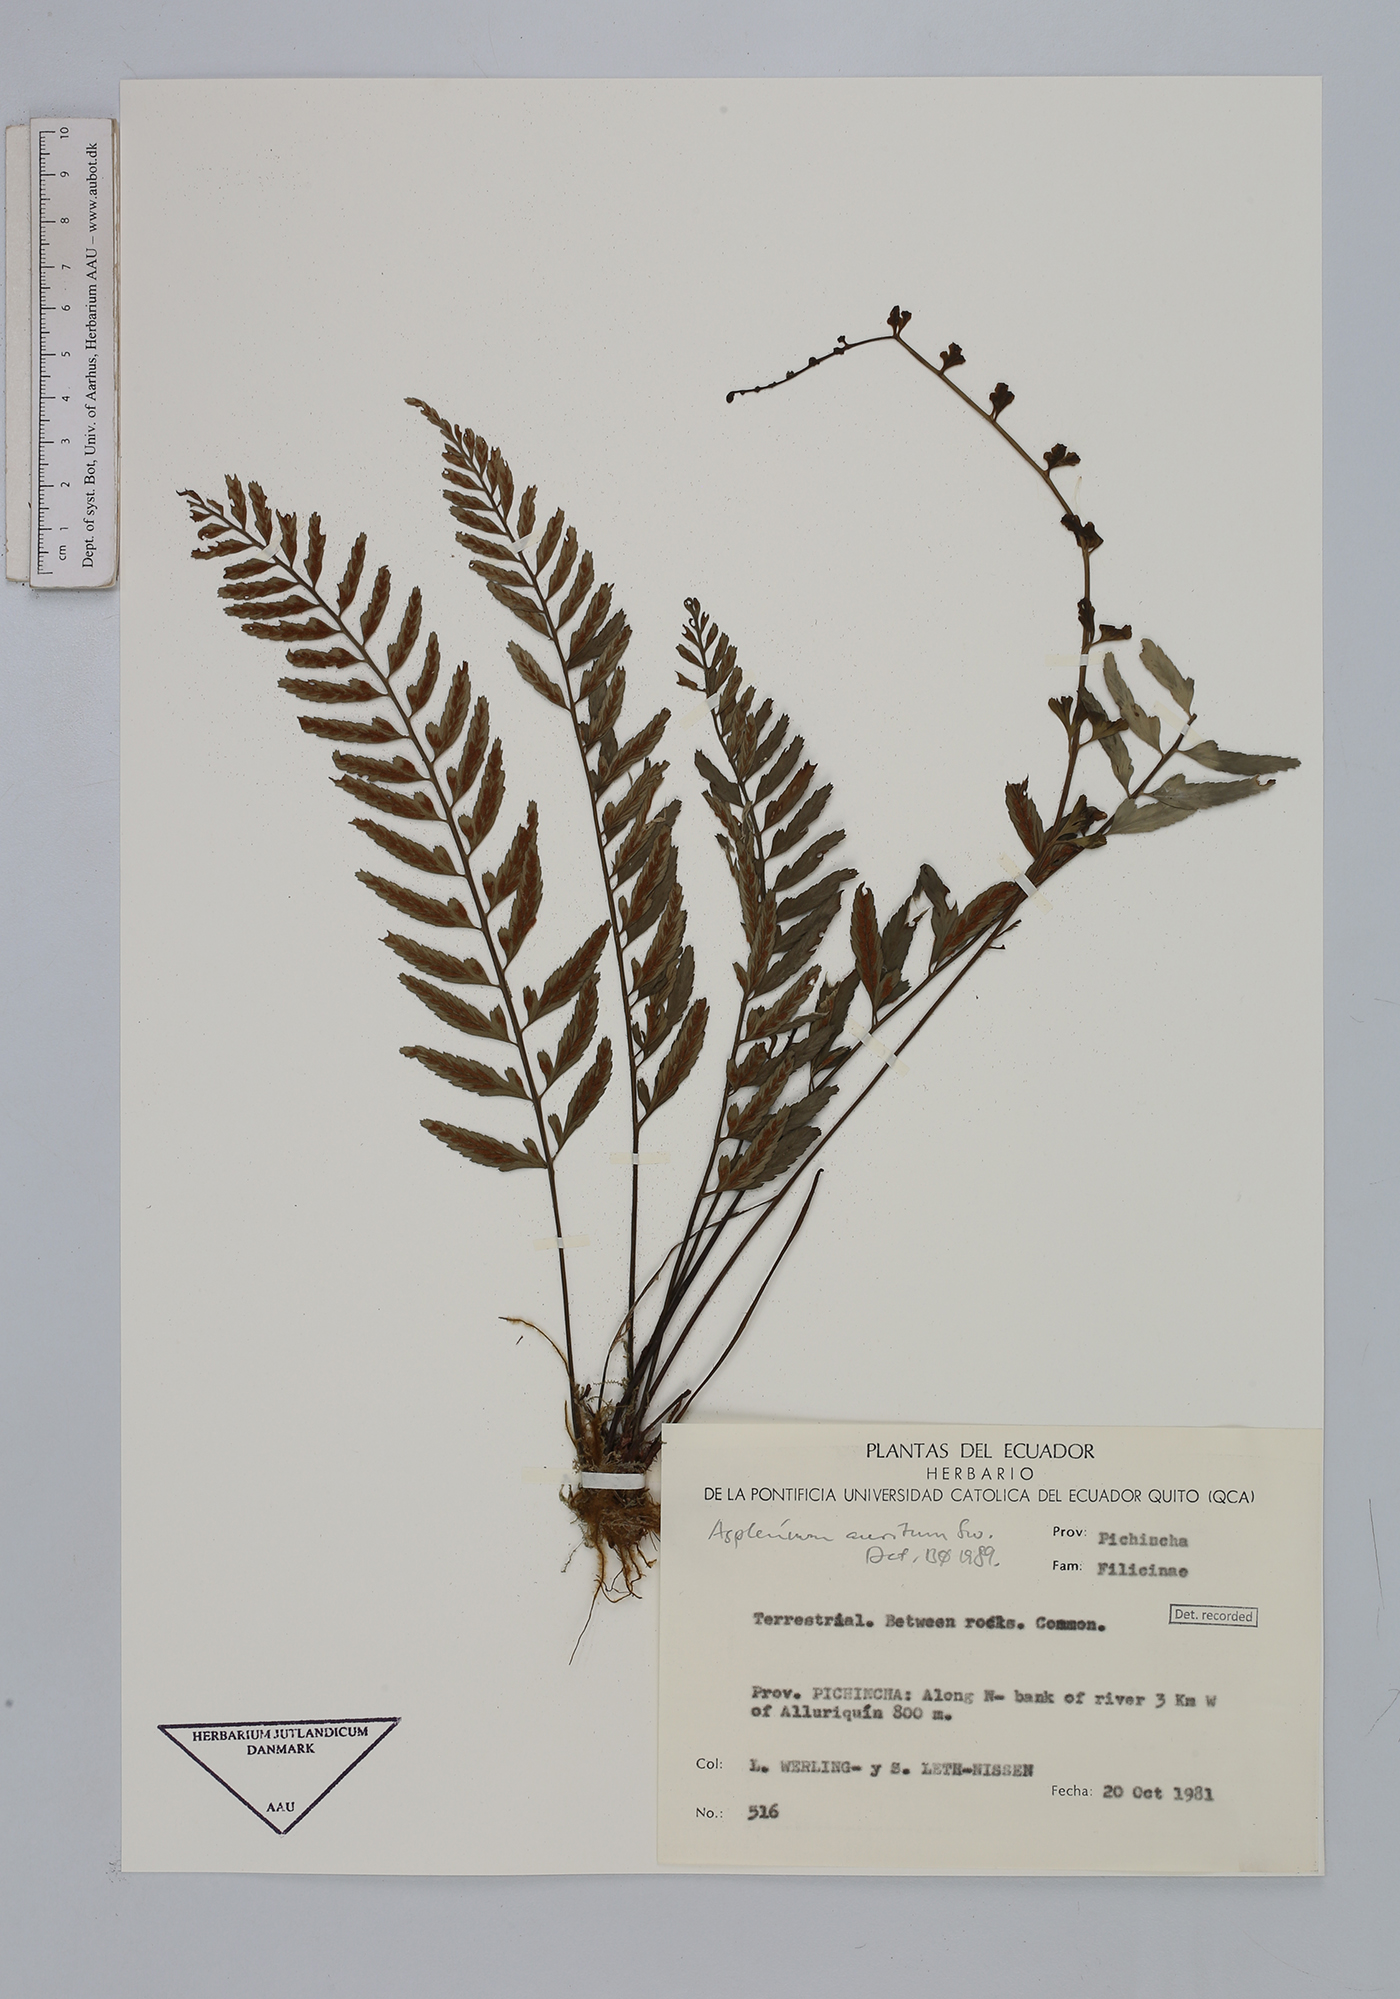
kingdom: Plantae
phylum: Tracheophyta
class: Polypodiopsida
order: Polypodiales
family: Aspleniaceae
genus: Asplenium
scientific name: Asplenium auritum
